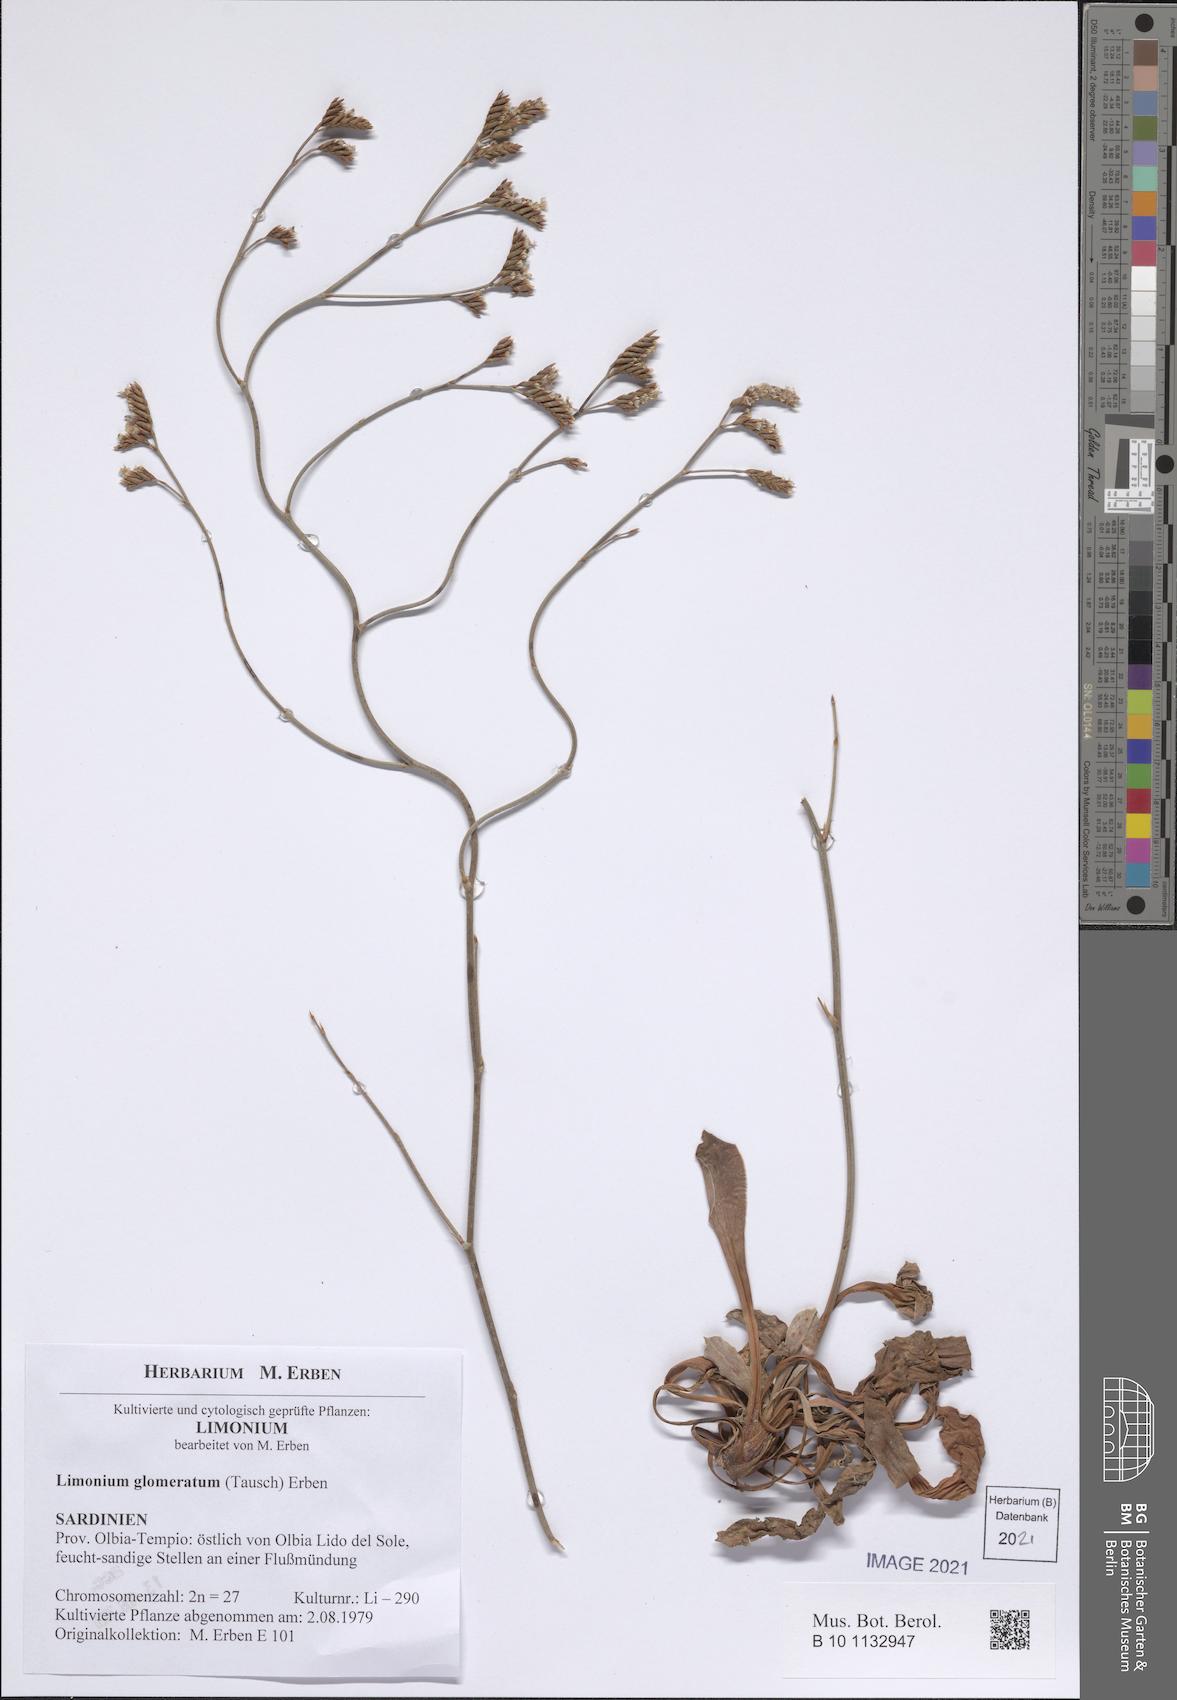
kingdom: Plantae
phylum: Tracheophyta
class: Magnoliopsida
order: Caryophyllales
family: Plumbaginaceae
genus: Limonium
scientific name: Limonium glomeratum
